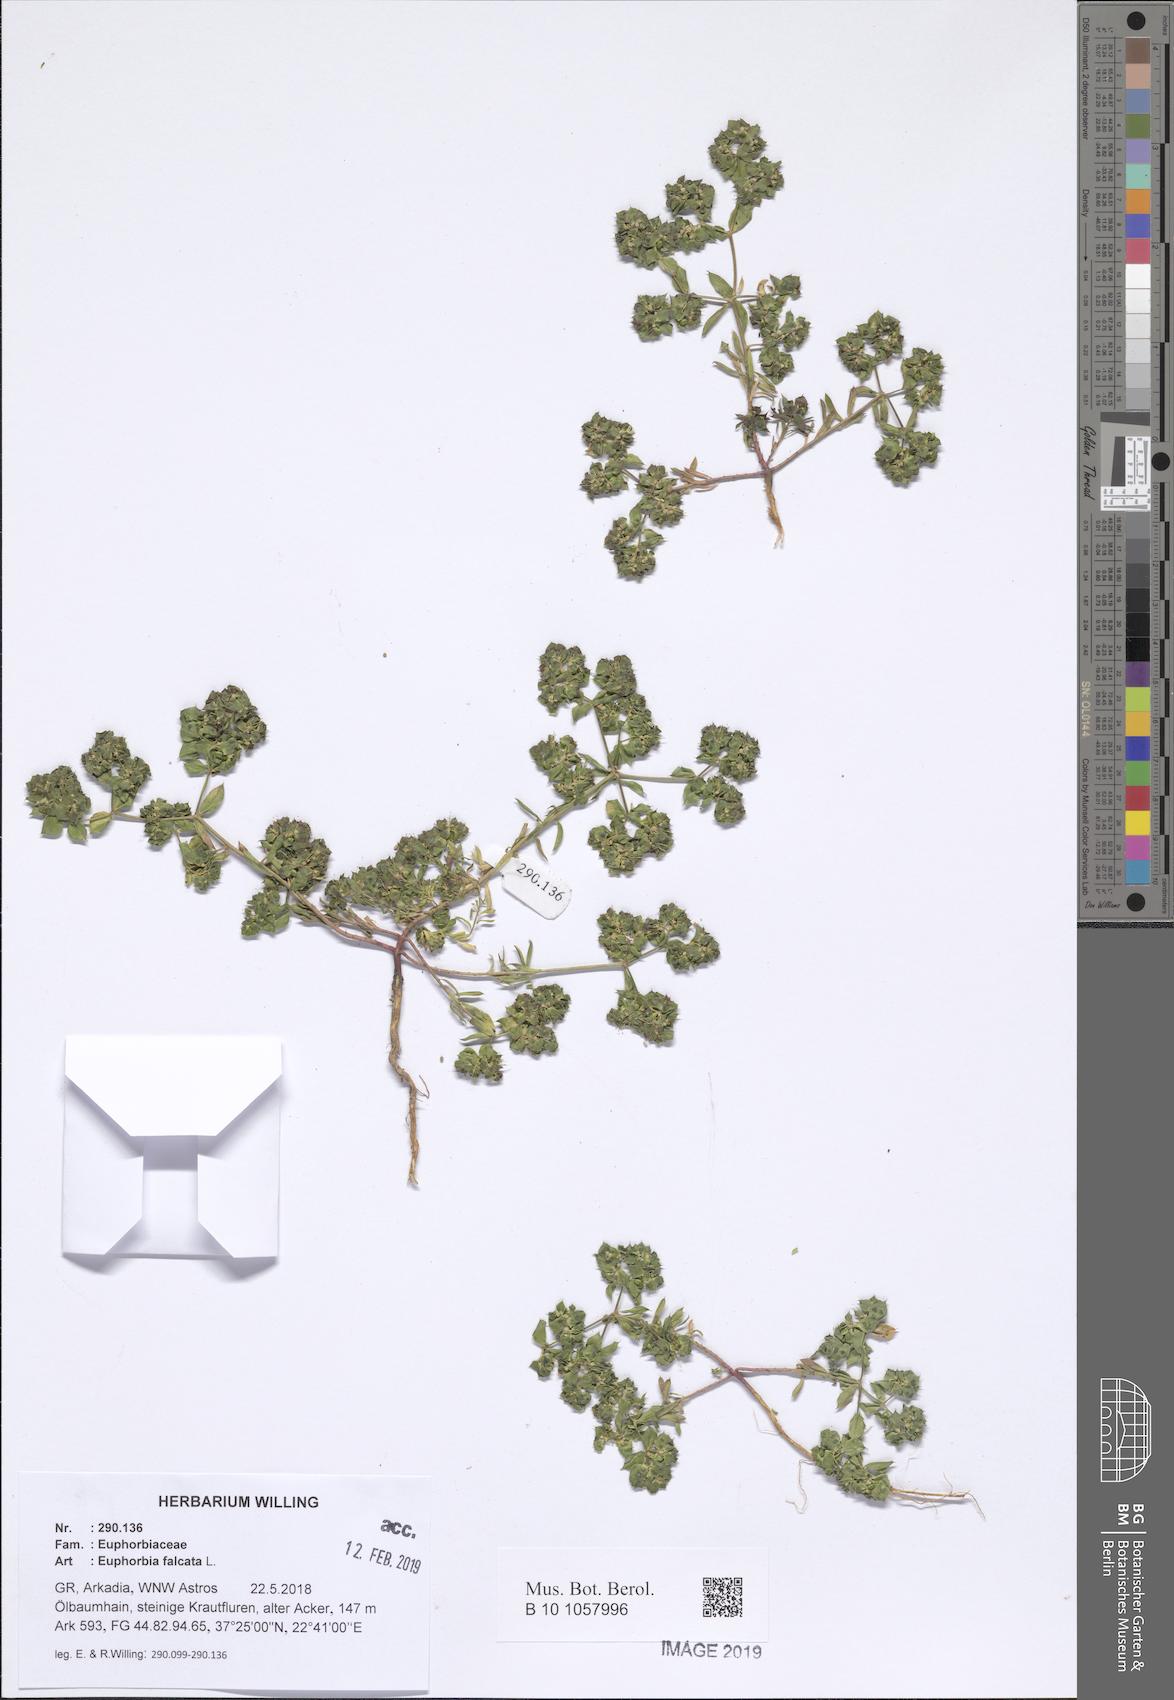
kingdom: Plantae
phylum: Tracheophyta
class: Magnoliopsida
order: Malpighiales
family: Euphorbiaceae
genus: Euphorbia
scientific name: Euphorbia falcata
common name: Sickle spurge
